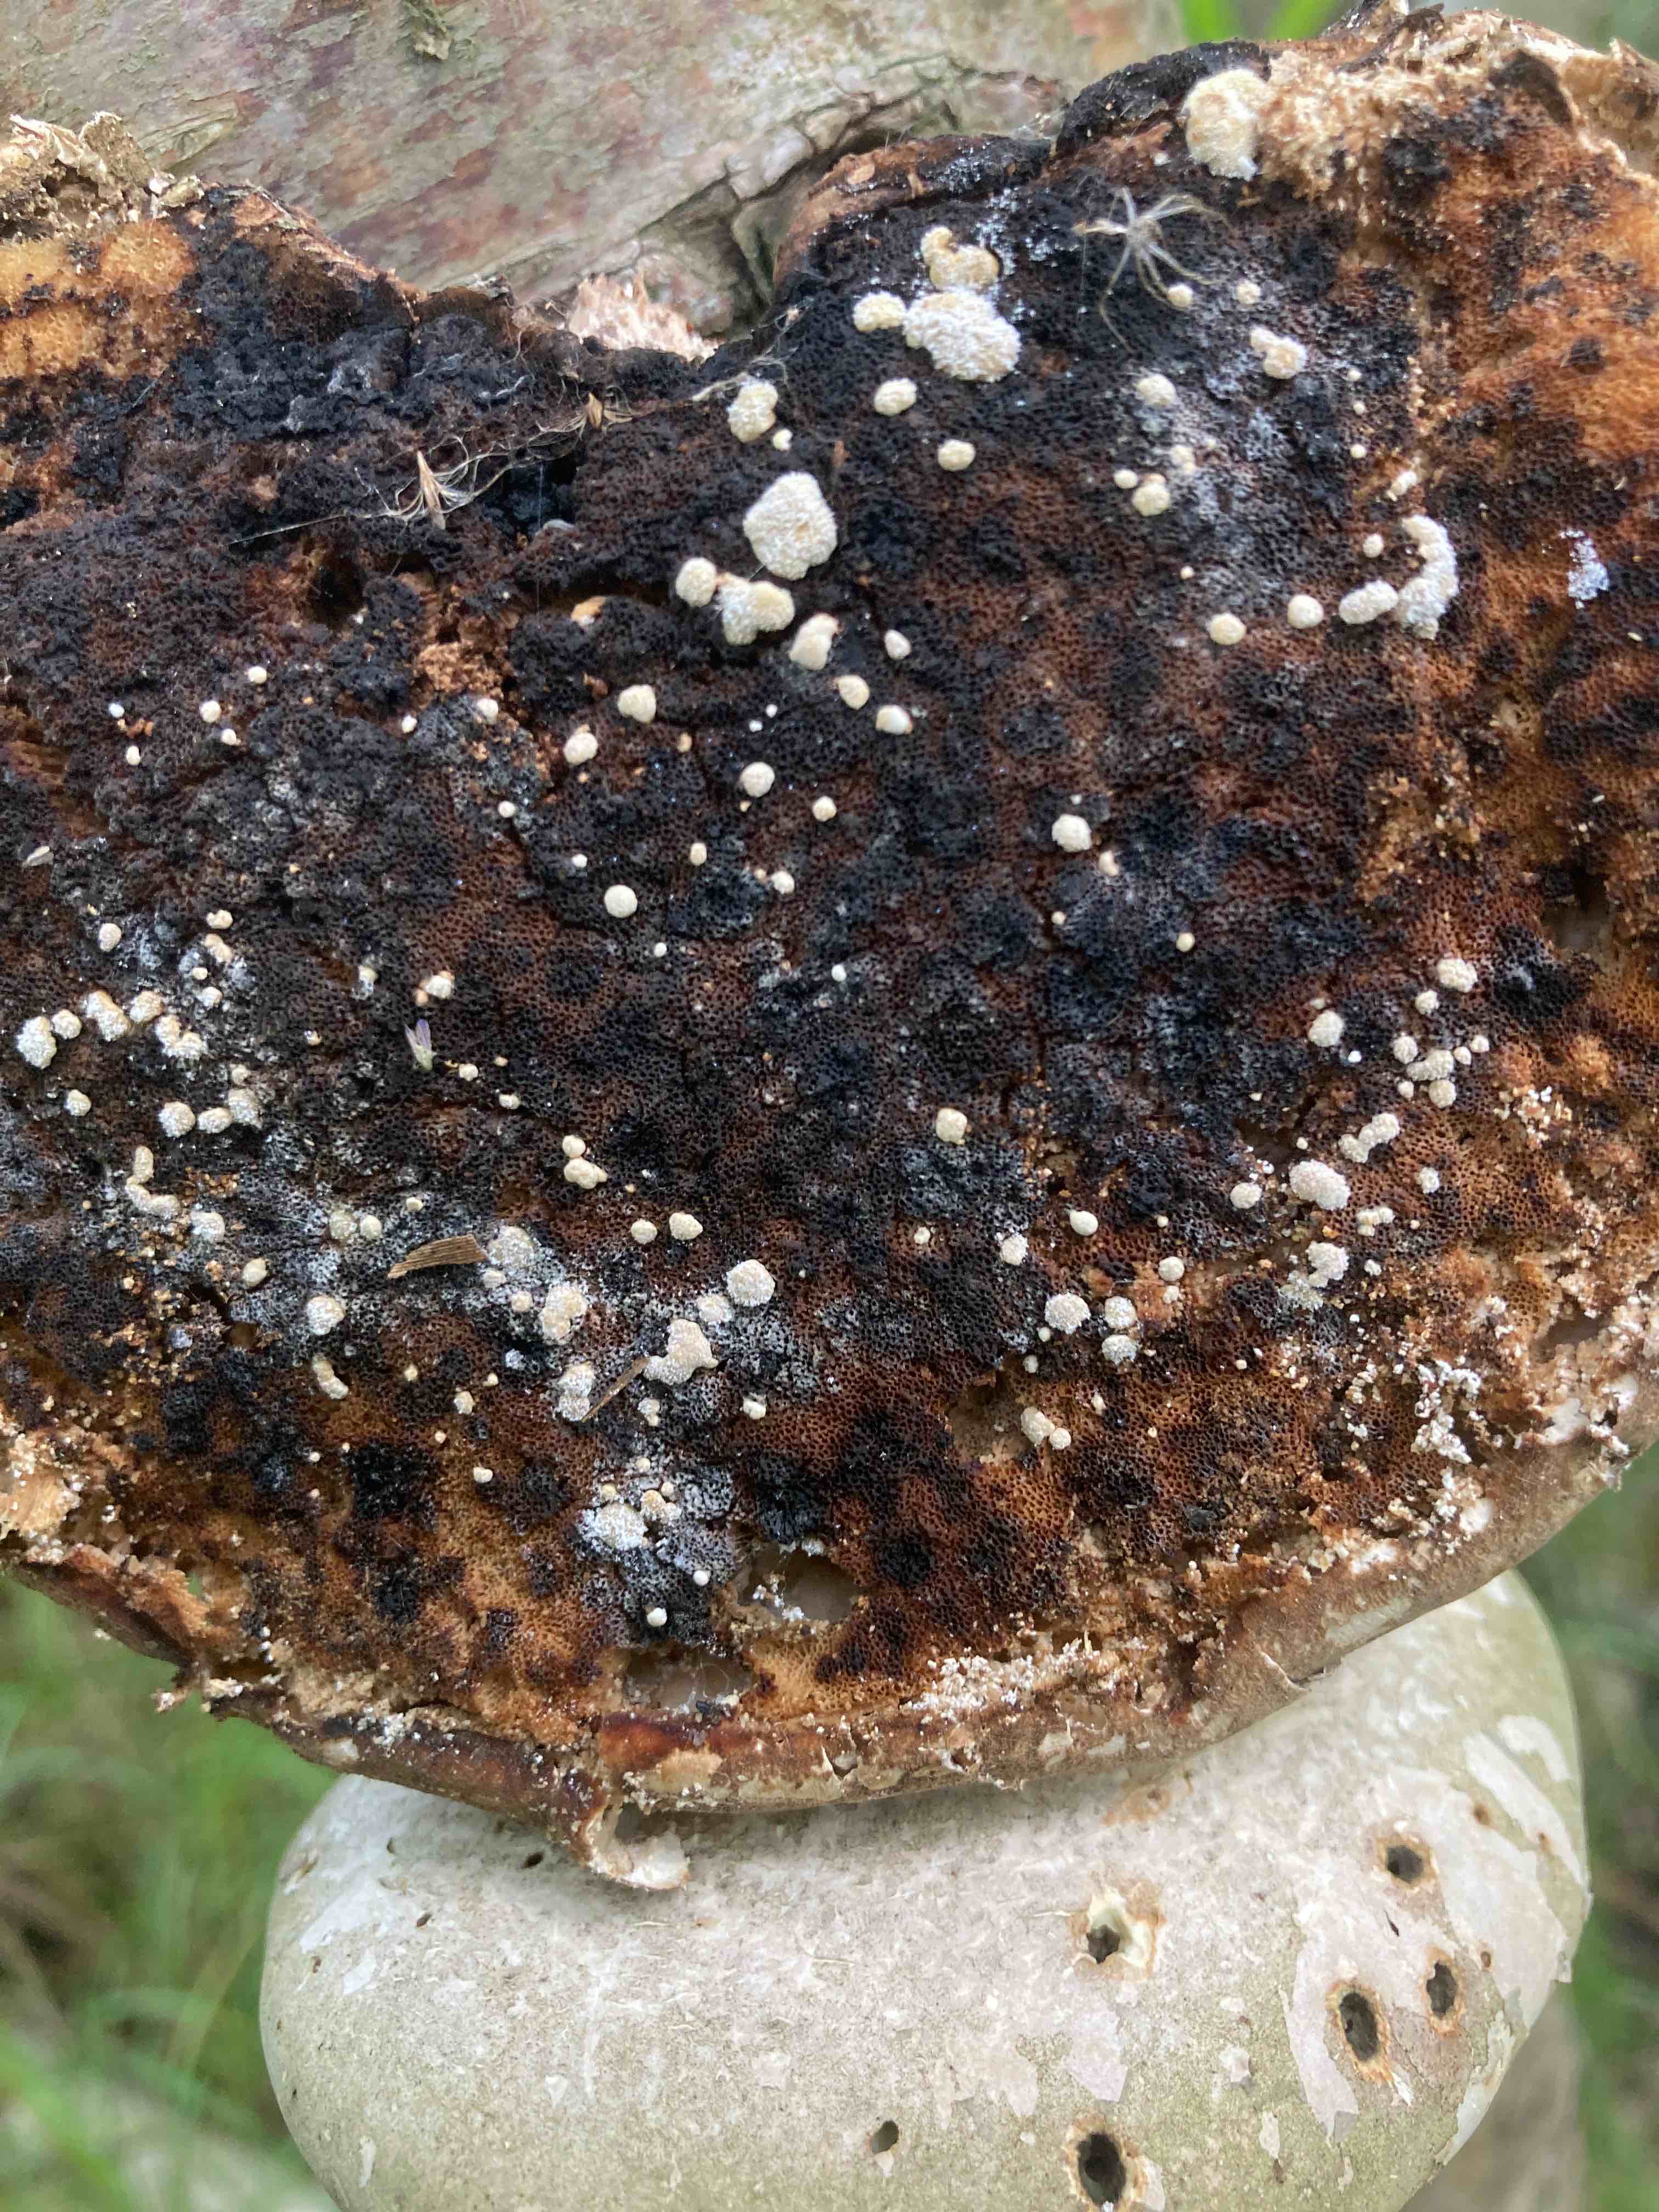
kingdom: Fungi
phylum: Ascomycota
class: Sordariomycetes
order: Hypocreales
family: Hypocreaceae
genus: Trichoderma
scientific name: Trichoderma pulvinatum
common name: snyltende kødkerne
